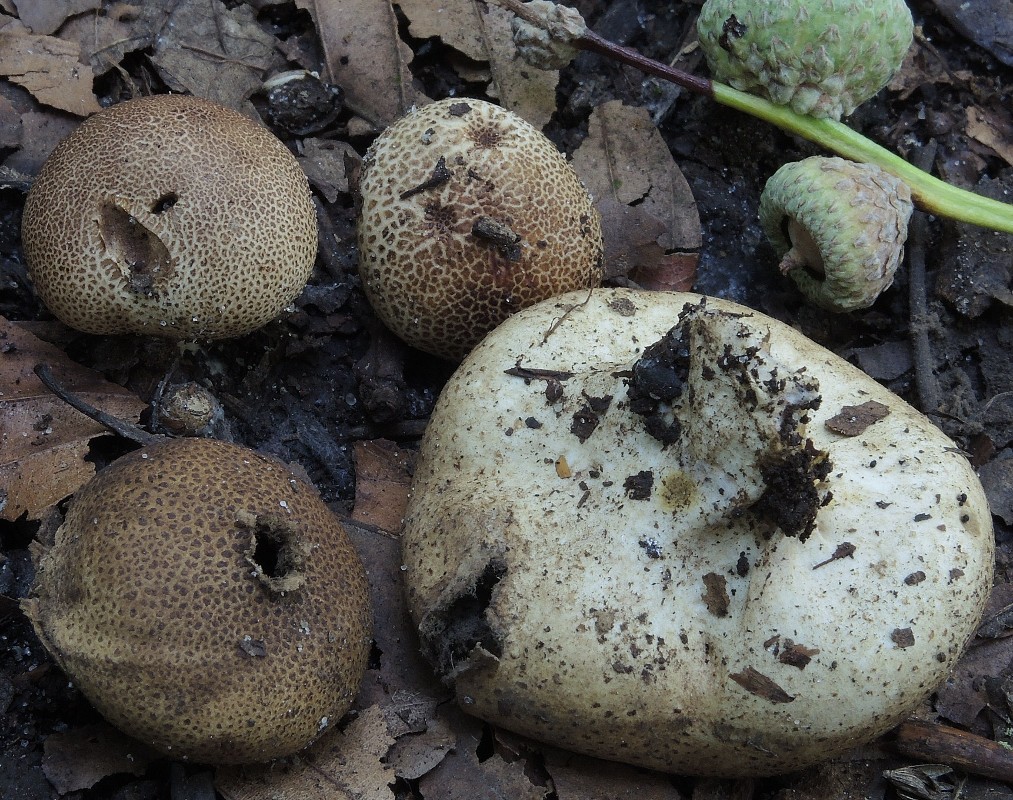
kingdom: Fungi
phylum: Basidiomycota
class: Agaricomycetes
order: Boletales
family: Sclerodermataceae
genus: Scleroderma
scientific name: Scleroderma areolatum
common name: plettet bruskbold
